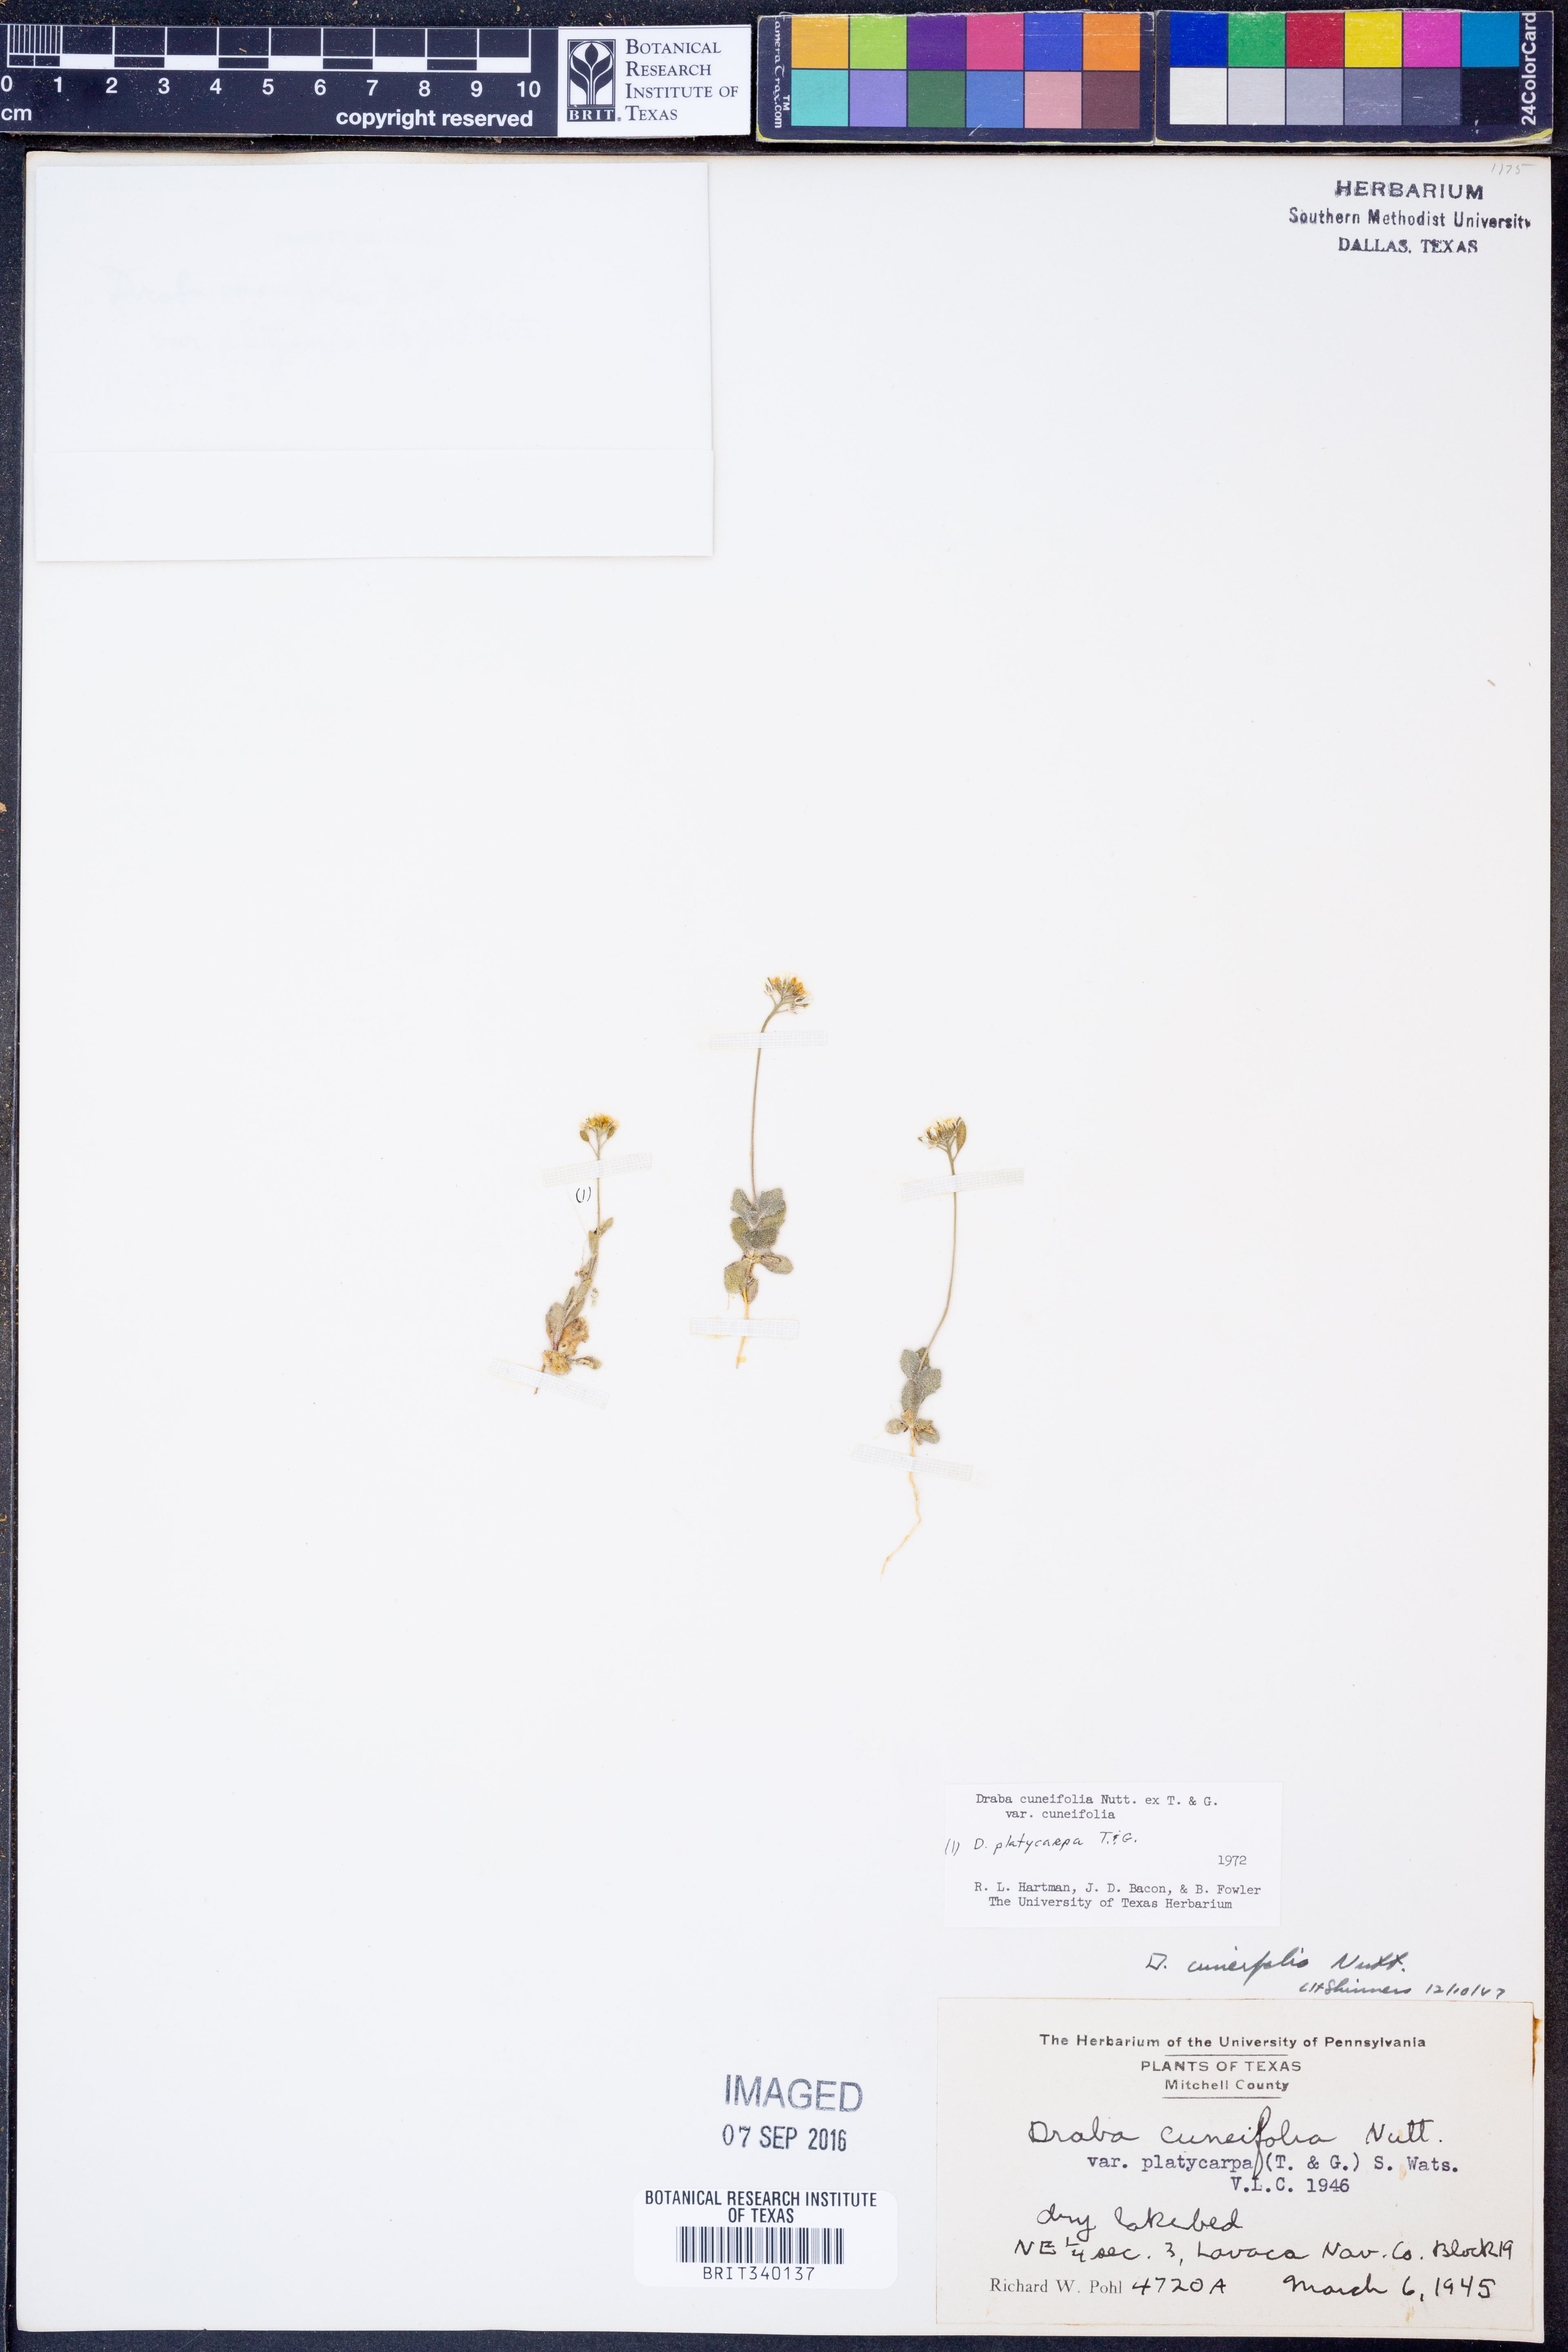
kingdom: Plantae
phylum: Tracheophyta
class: Magnoliopsida
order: Brassicales
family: Brassicaceae
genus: Tomostima
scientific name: Tomostima cuneifolia
